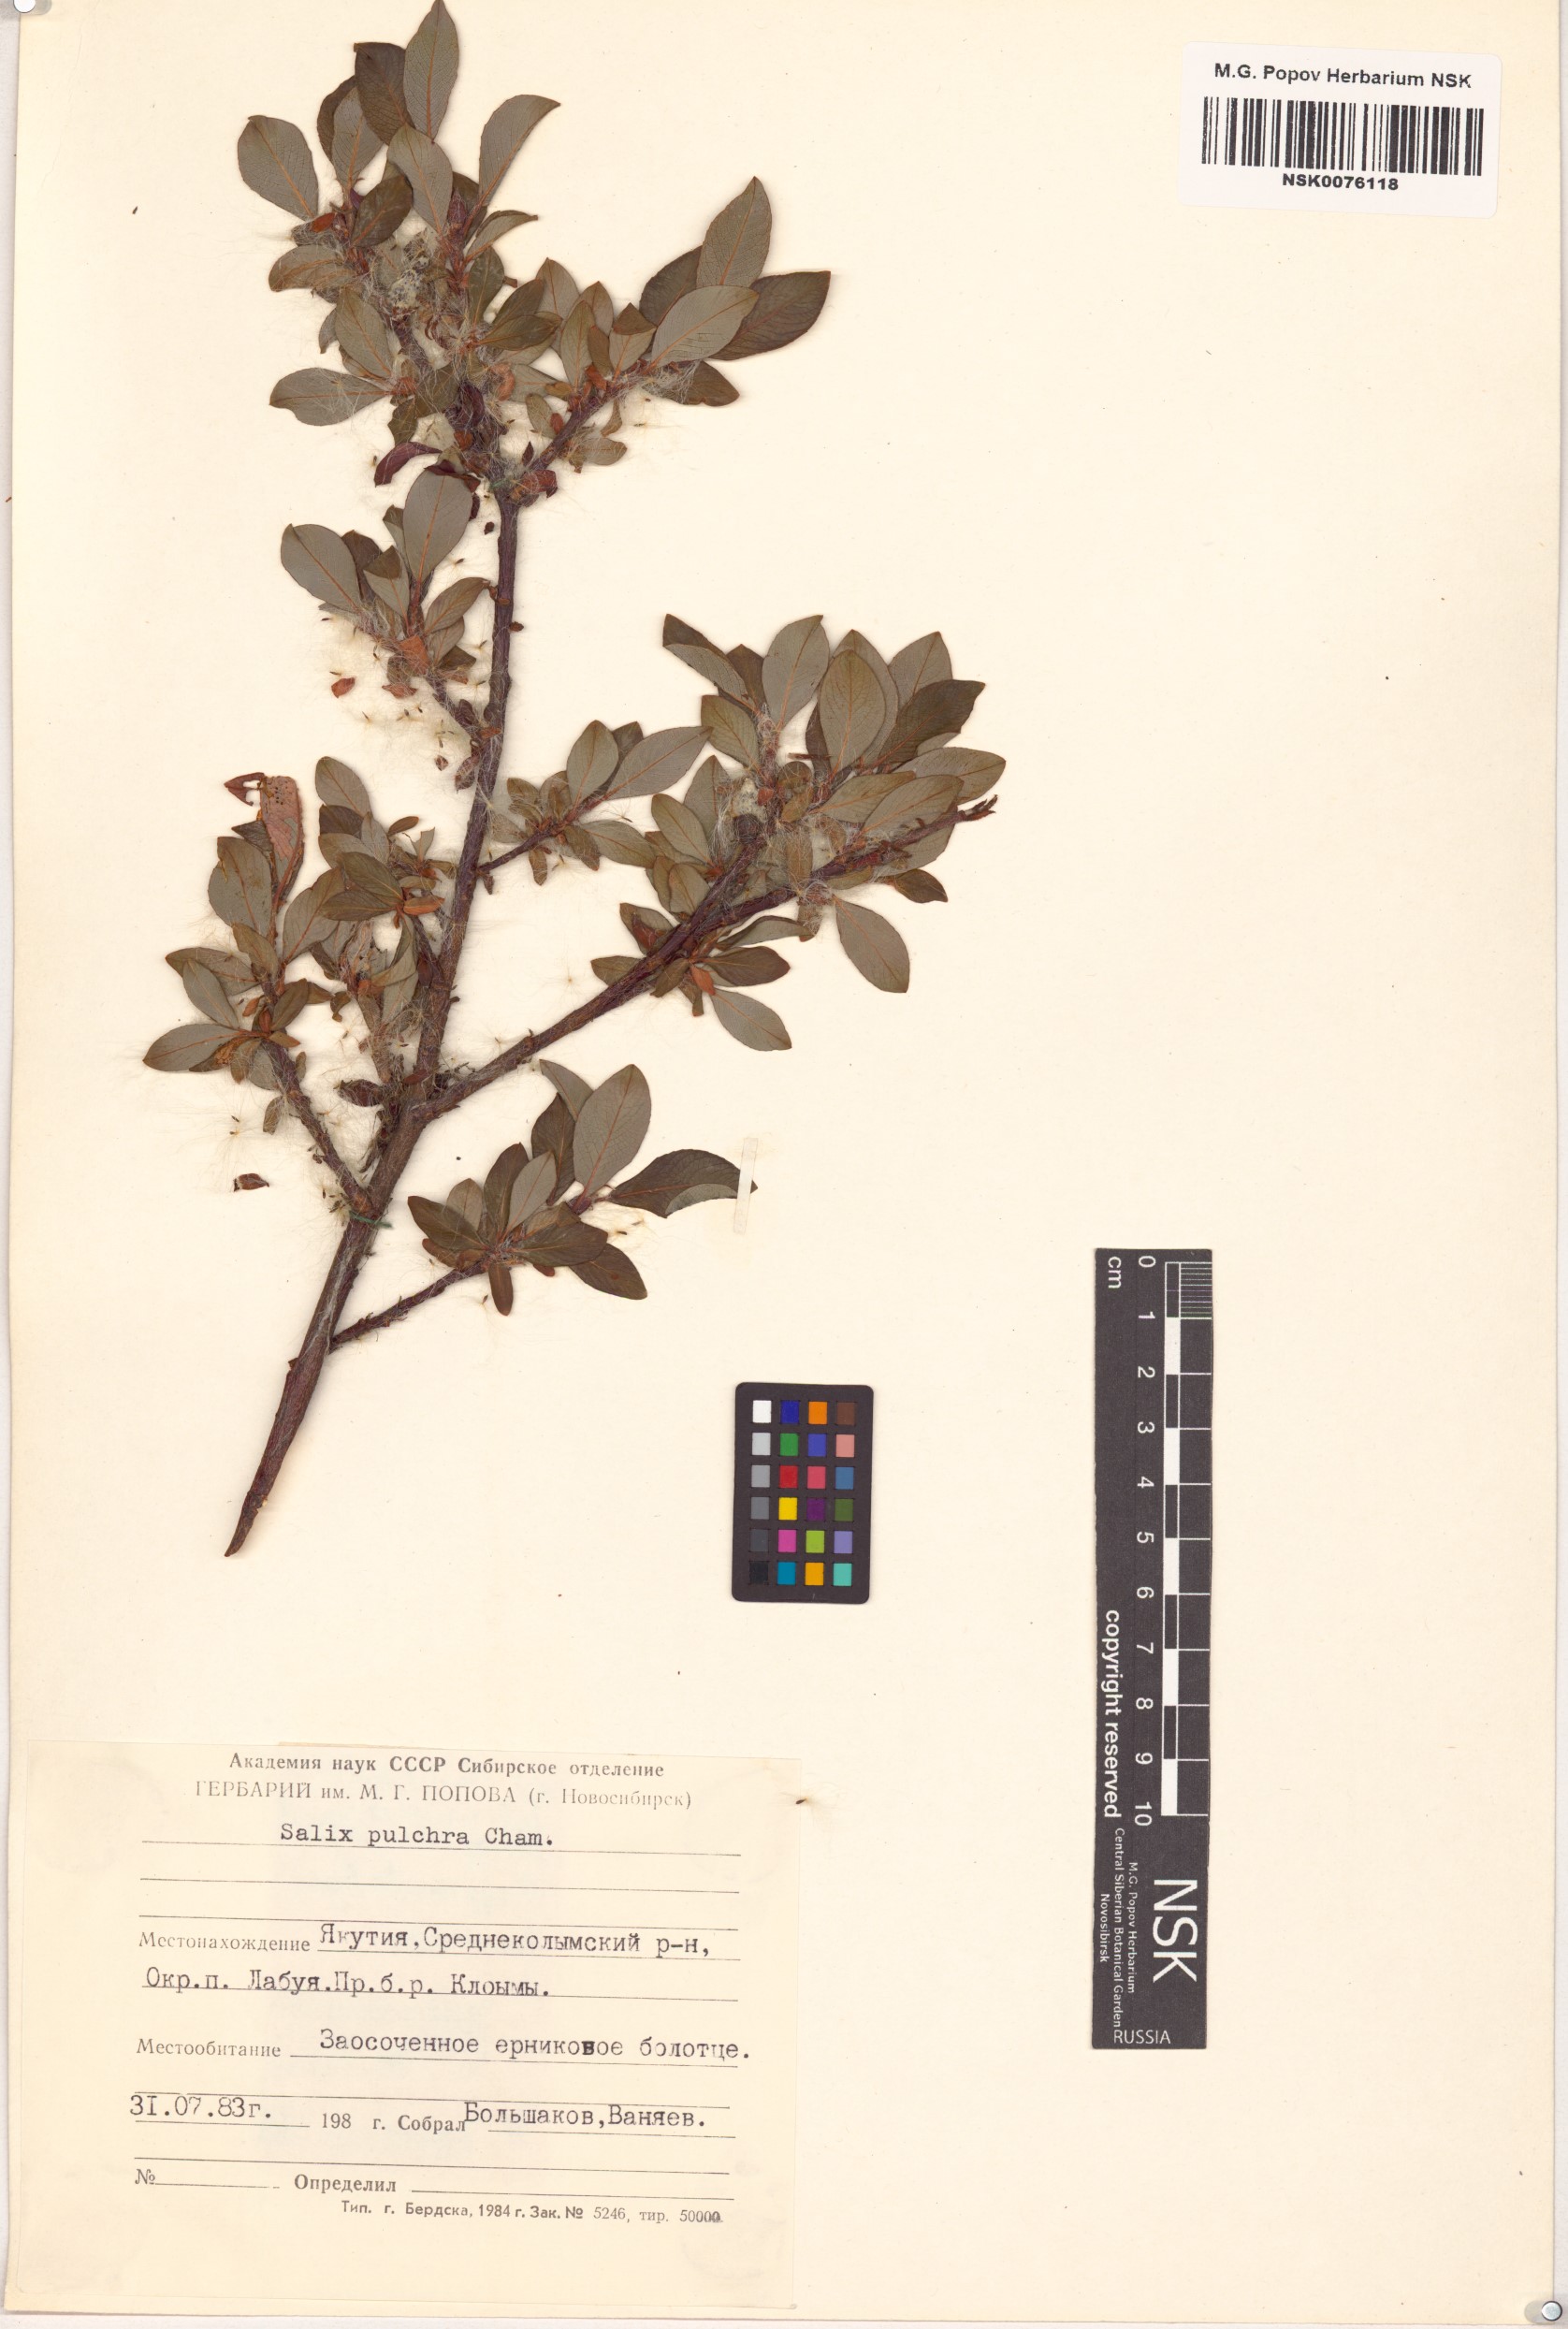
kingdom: Plantae
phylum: Tracheophyta
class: Magnoliopsida
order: Malpighiales
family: Salicaceae
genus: Salix
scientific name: Salix pulchra
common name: Diamond-leaved willow
